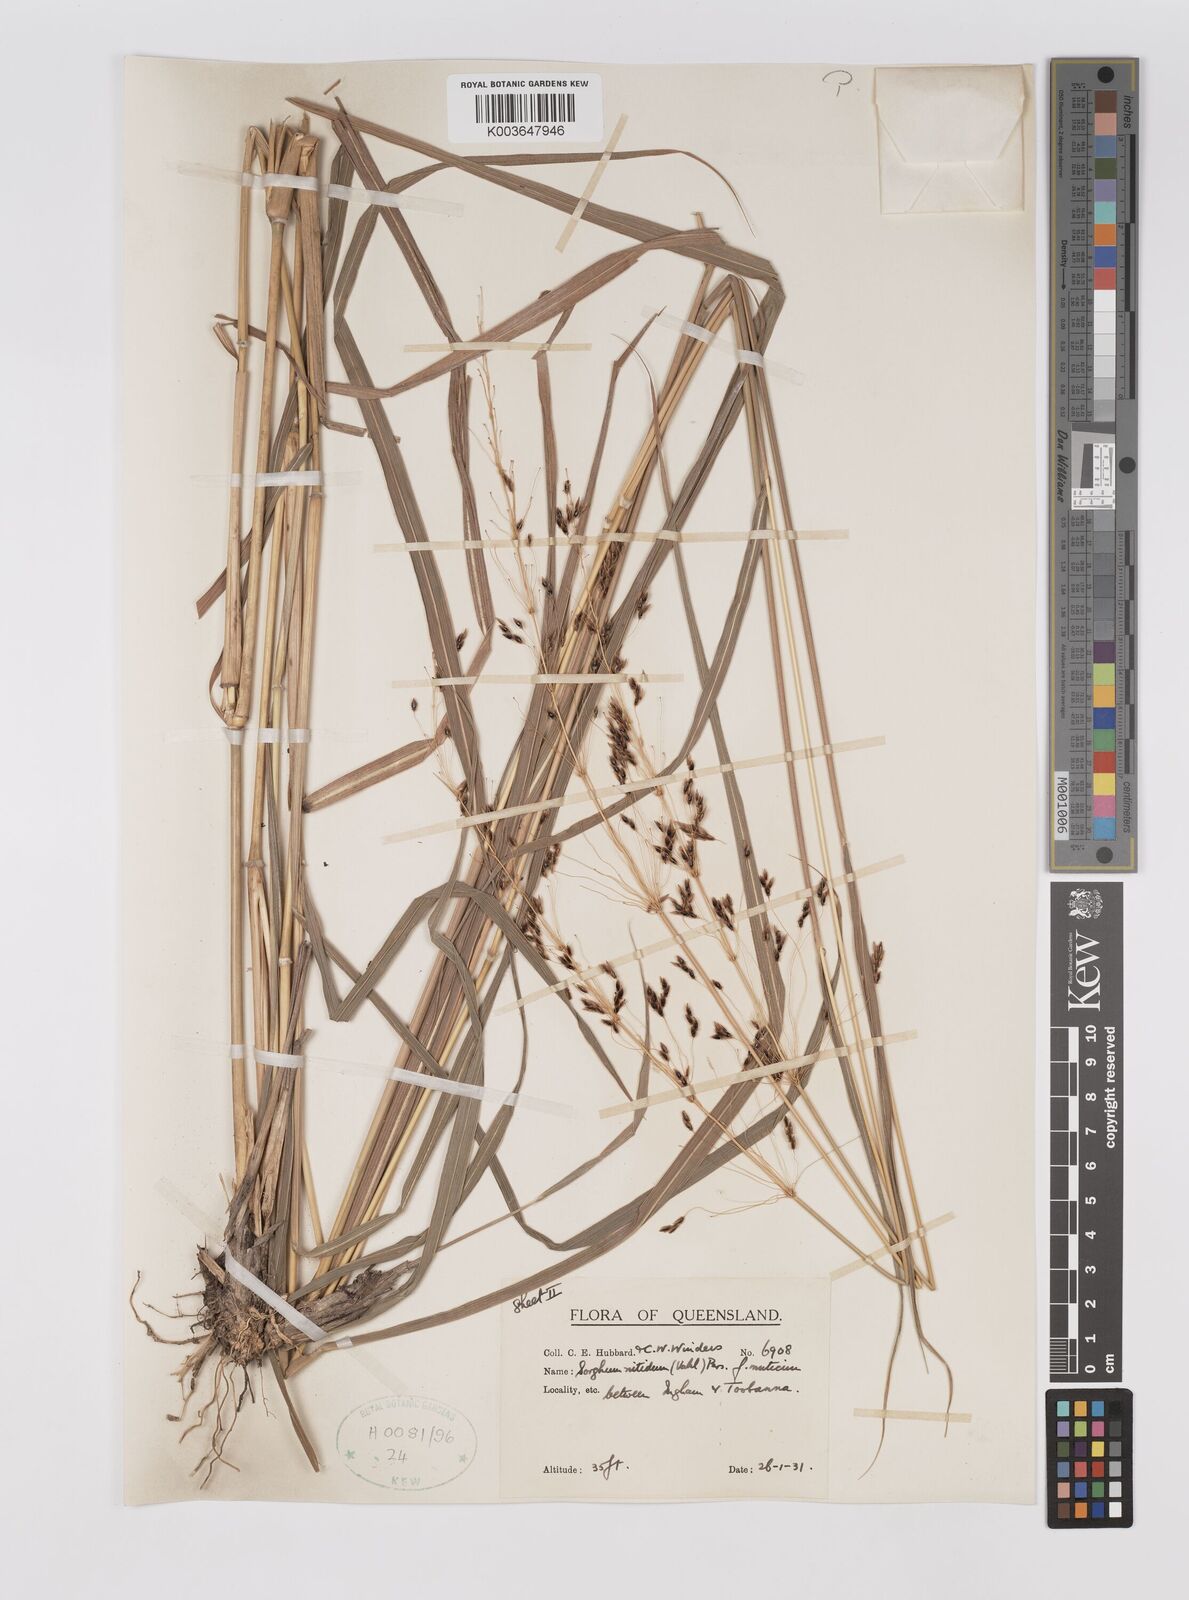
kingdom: Plantae
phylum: Tracheophyta
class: Liliopsida
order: Poales
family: Poaceae
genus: Sorghum
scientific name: Sorghum nitidum
